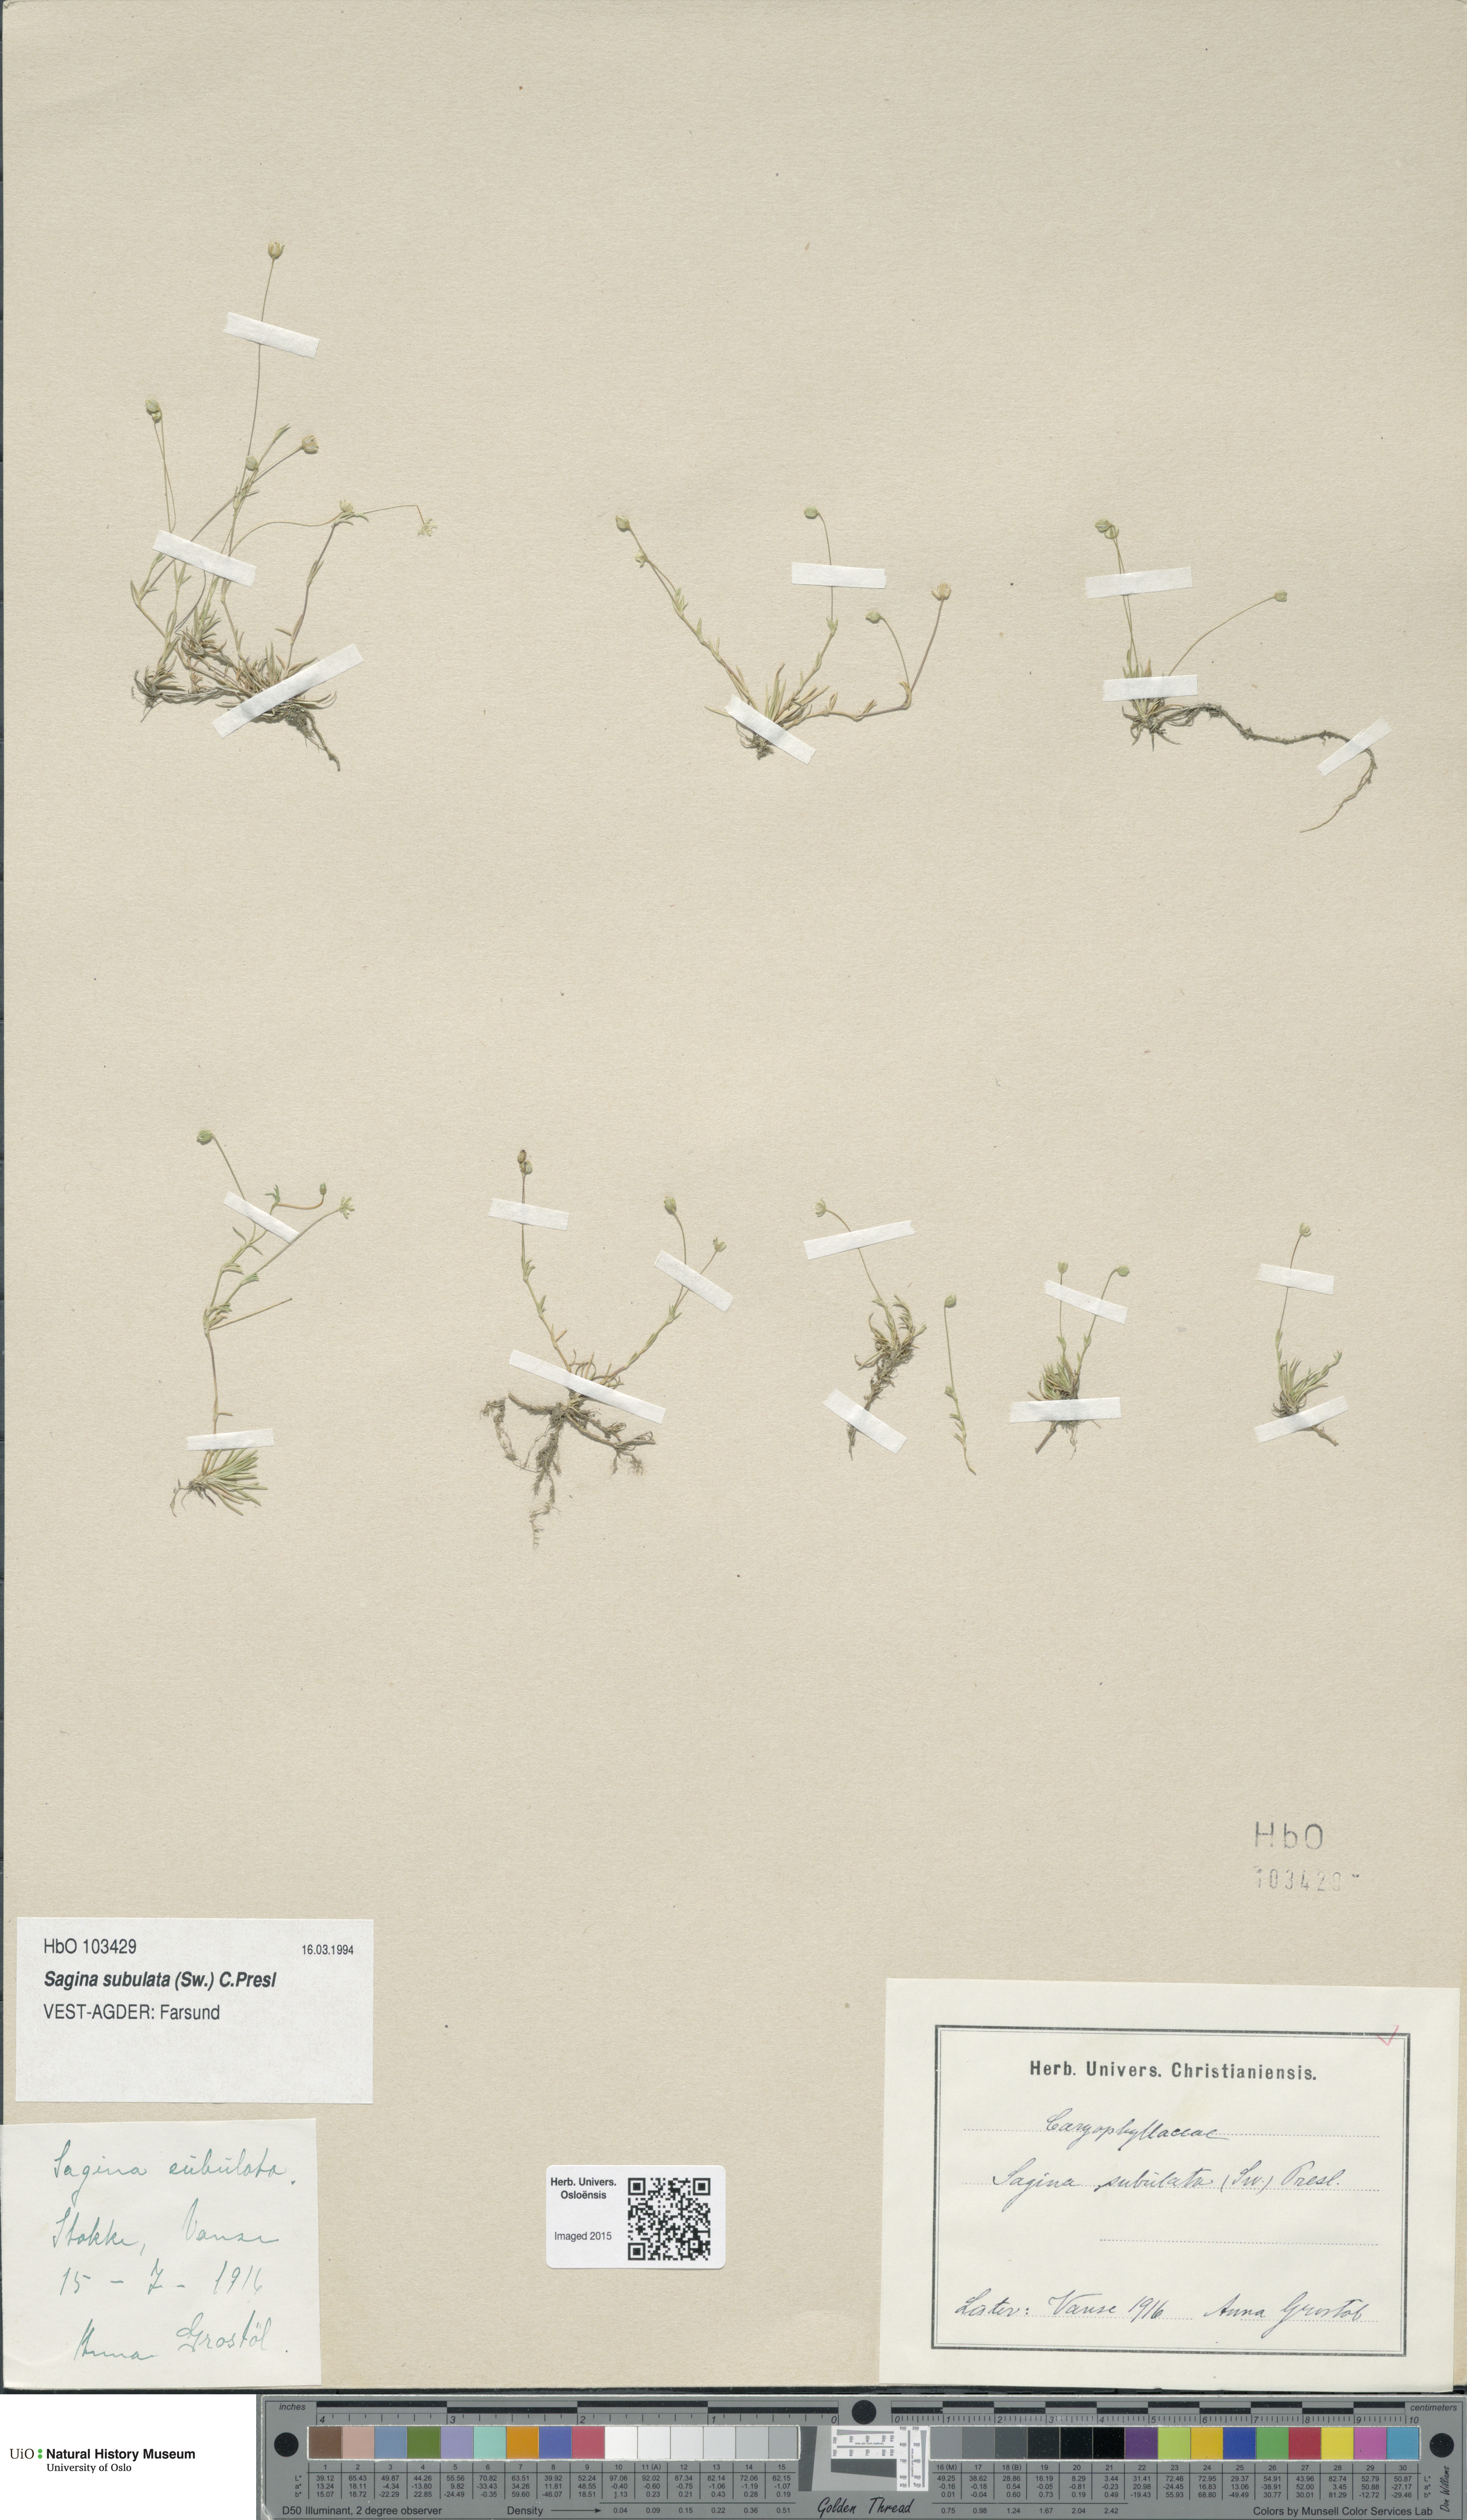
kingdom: Plantae
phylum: Tracheophyta
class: Magnoliopsida
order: Caryophyllales
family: Caryophyllaceae
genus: Sagina
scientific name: Sagina alexandrae
